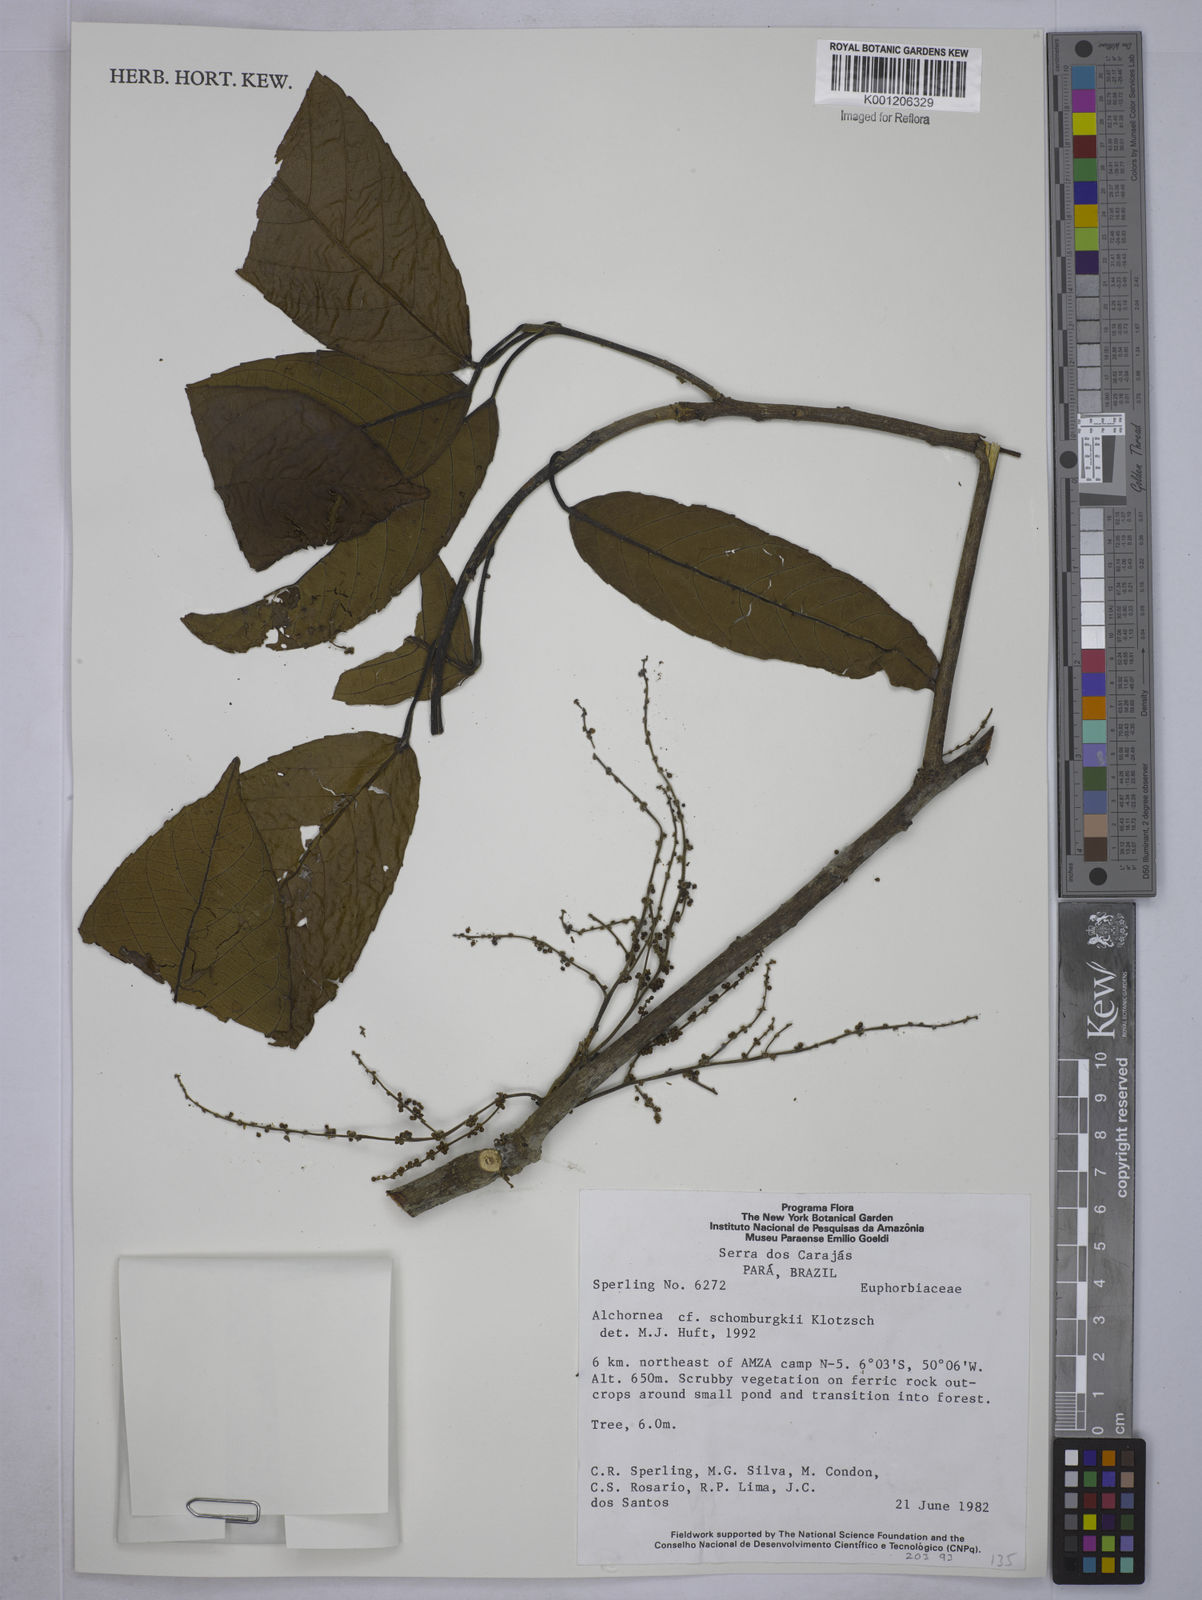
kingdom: Plantae
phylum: Tracheophyta
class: Magnoliopsida
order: Malpighiales
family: Euphorbiaceae
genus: Alchornea
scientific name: Alchornea discolor
